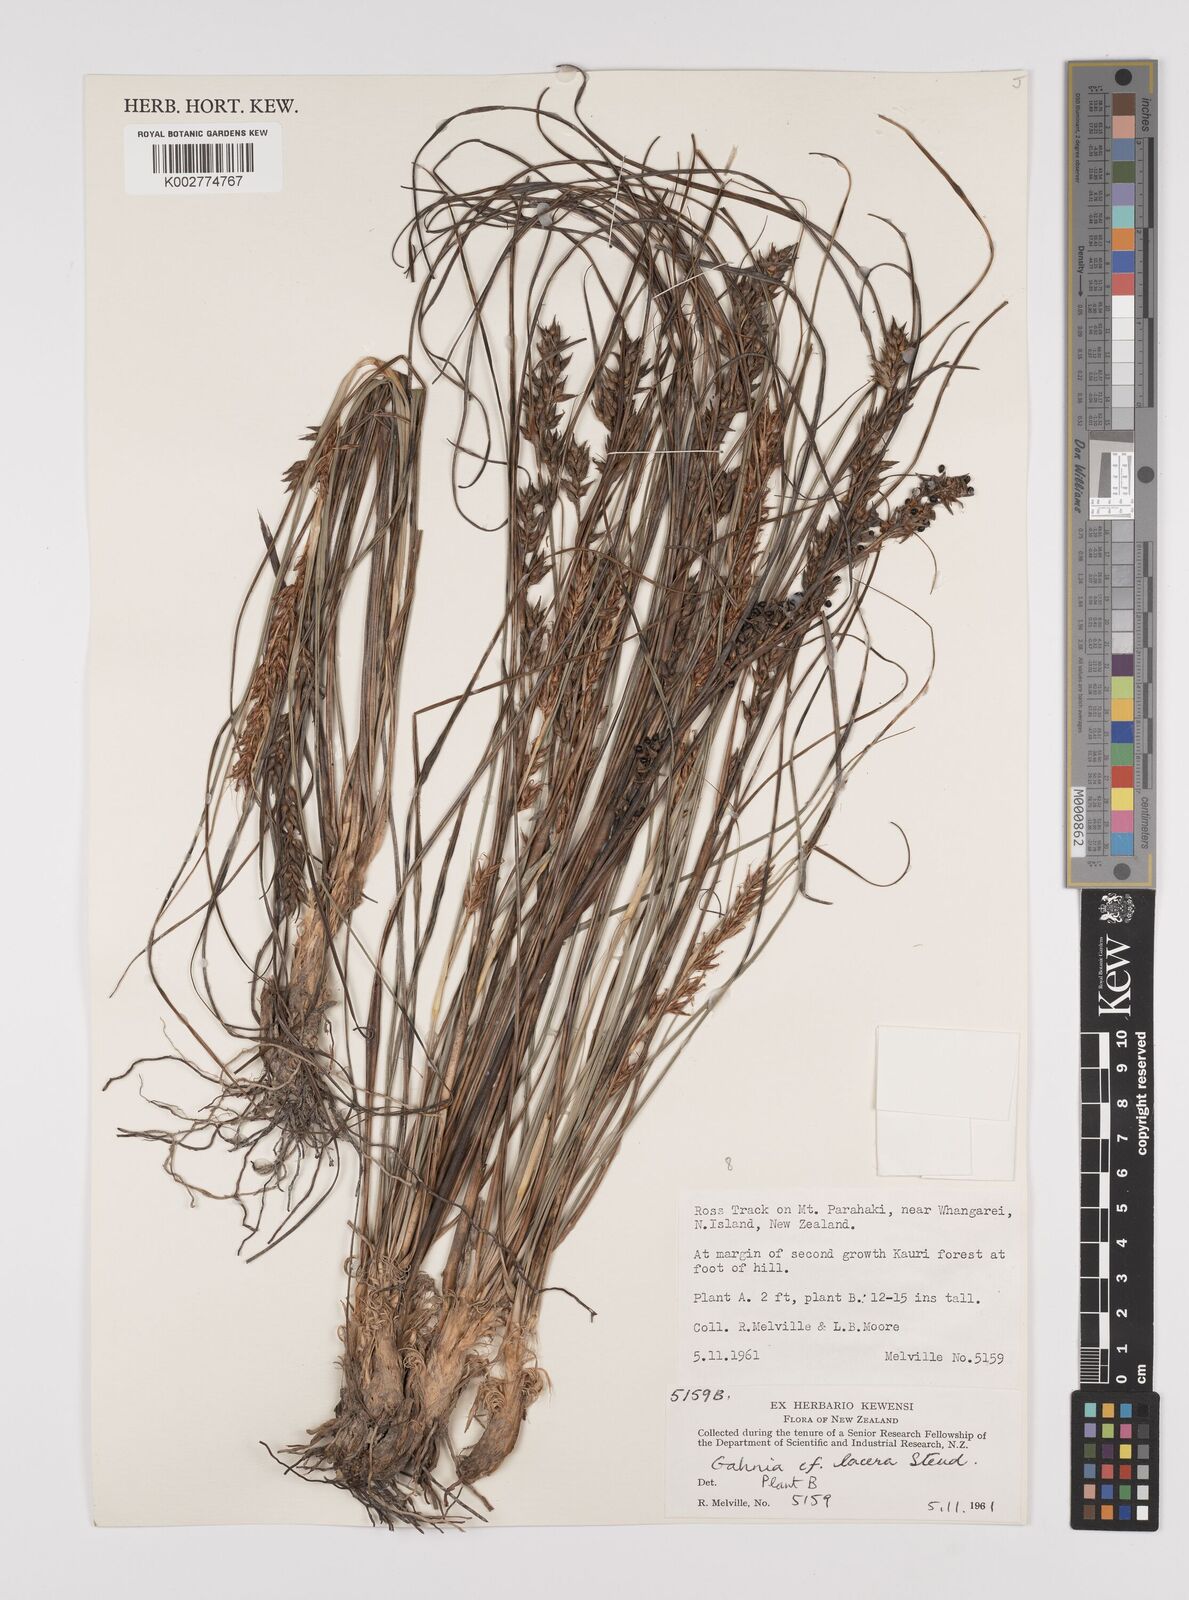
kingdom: Plantae
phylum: Tracheophyta
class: Liliopsida
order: Poales
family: Cyperaceae
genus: Gahnia
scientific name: Gahnia lacera
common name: Sawsedge
